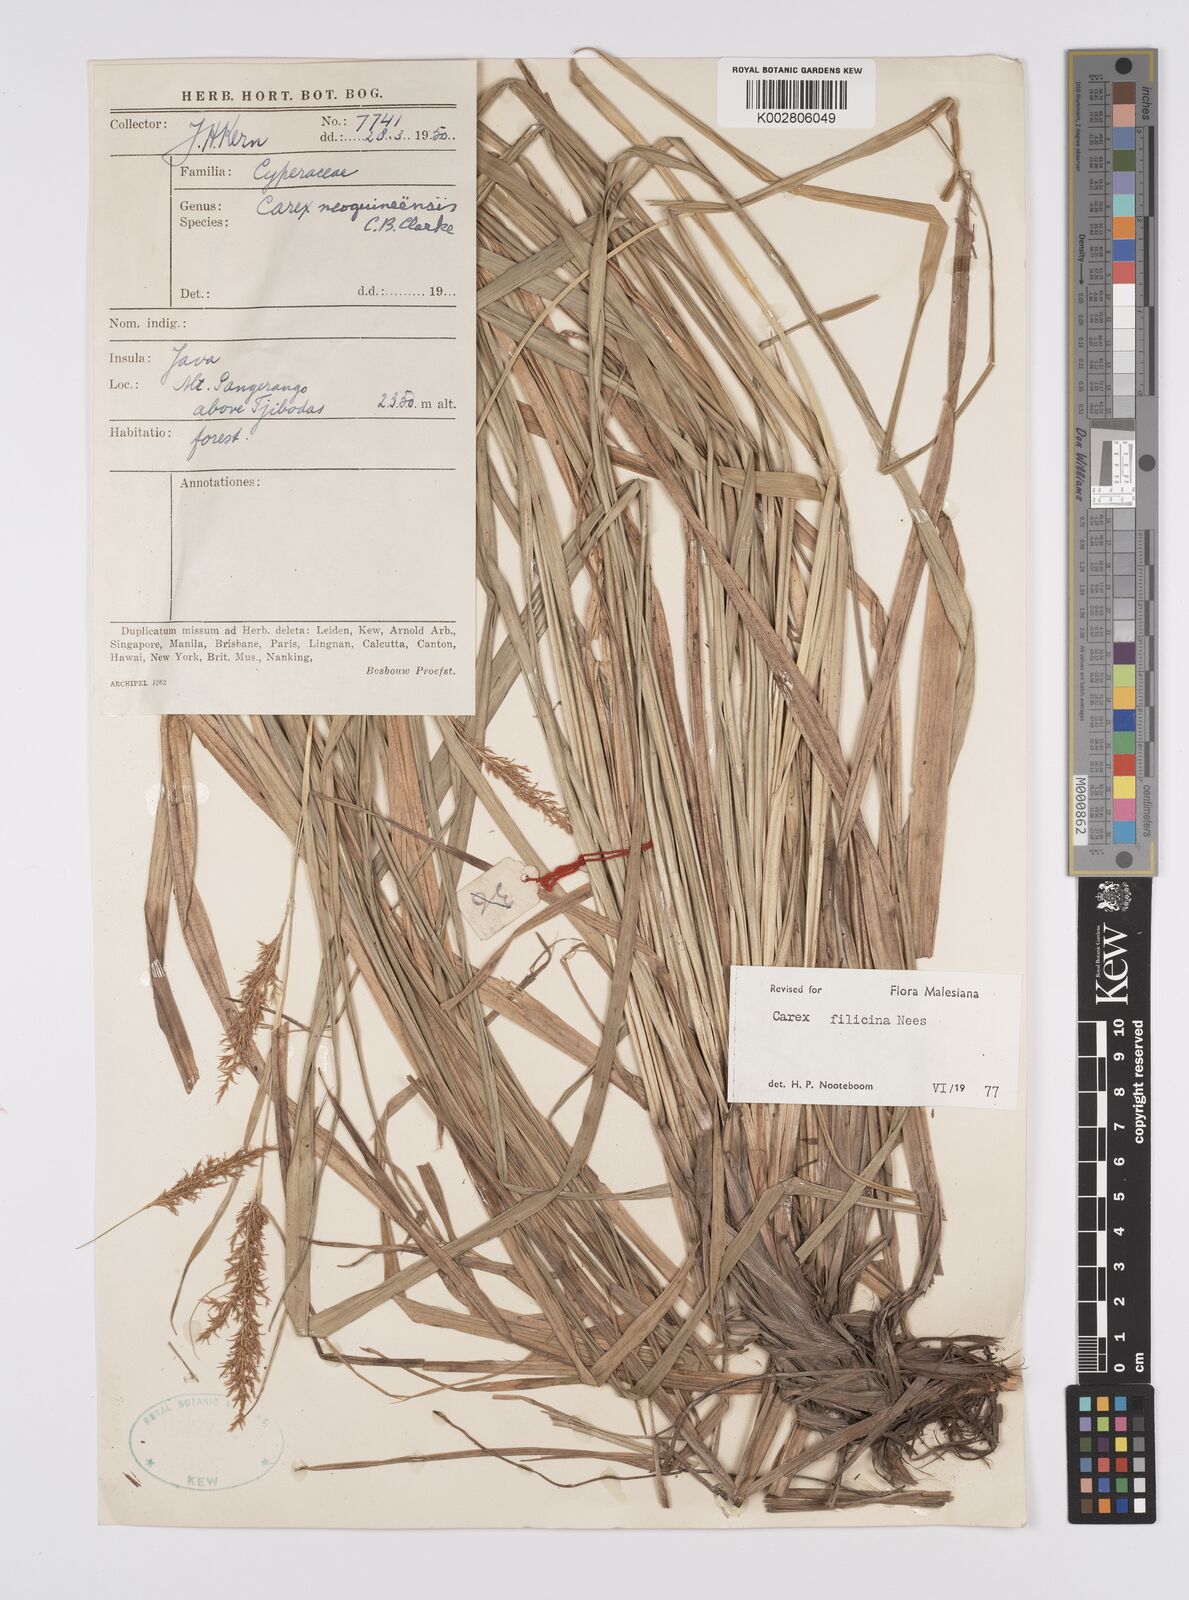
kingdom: Plantae
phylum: Tracheophyta
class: Liliopsida
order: Poales
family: Cyperaceae
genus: Carex
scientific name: Carex filicina
